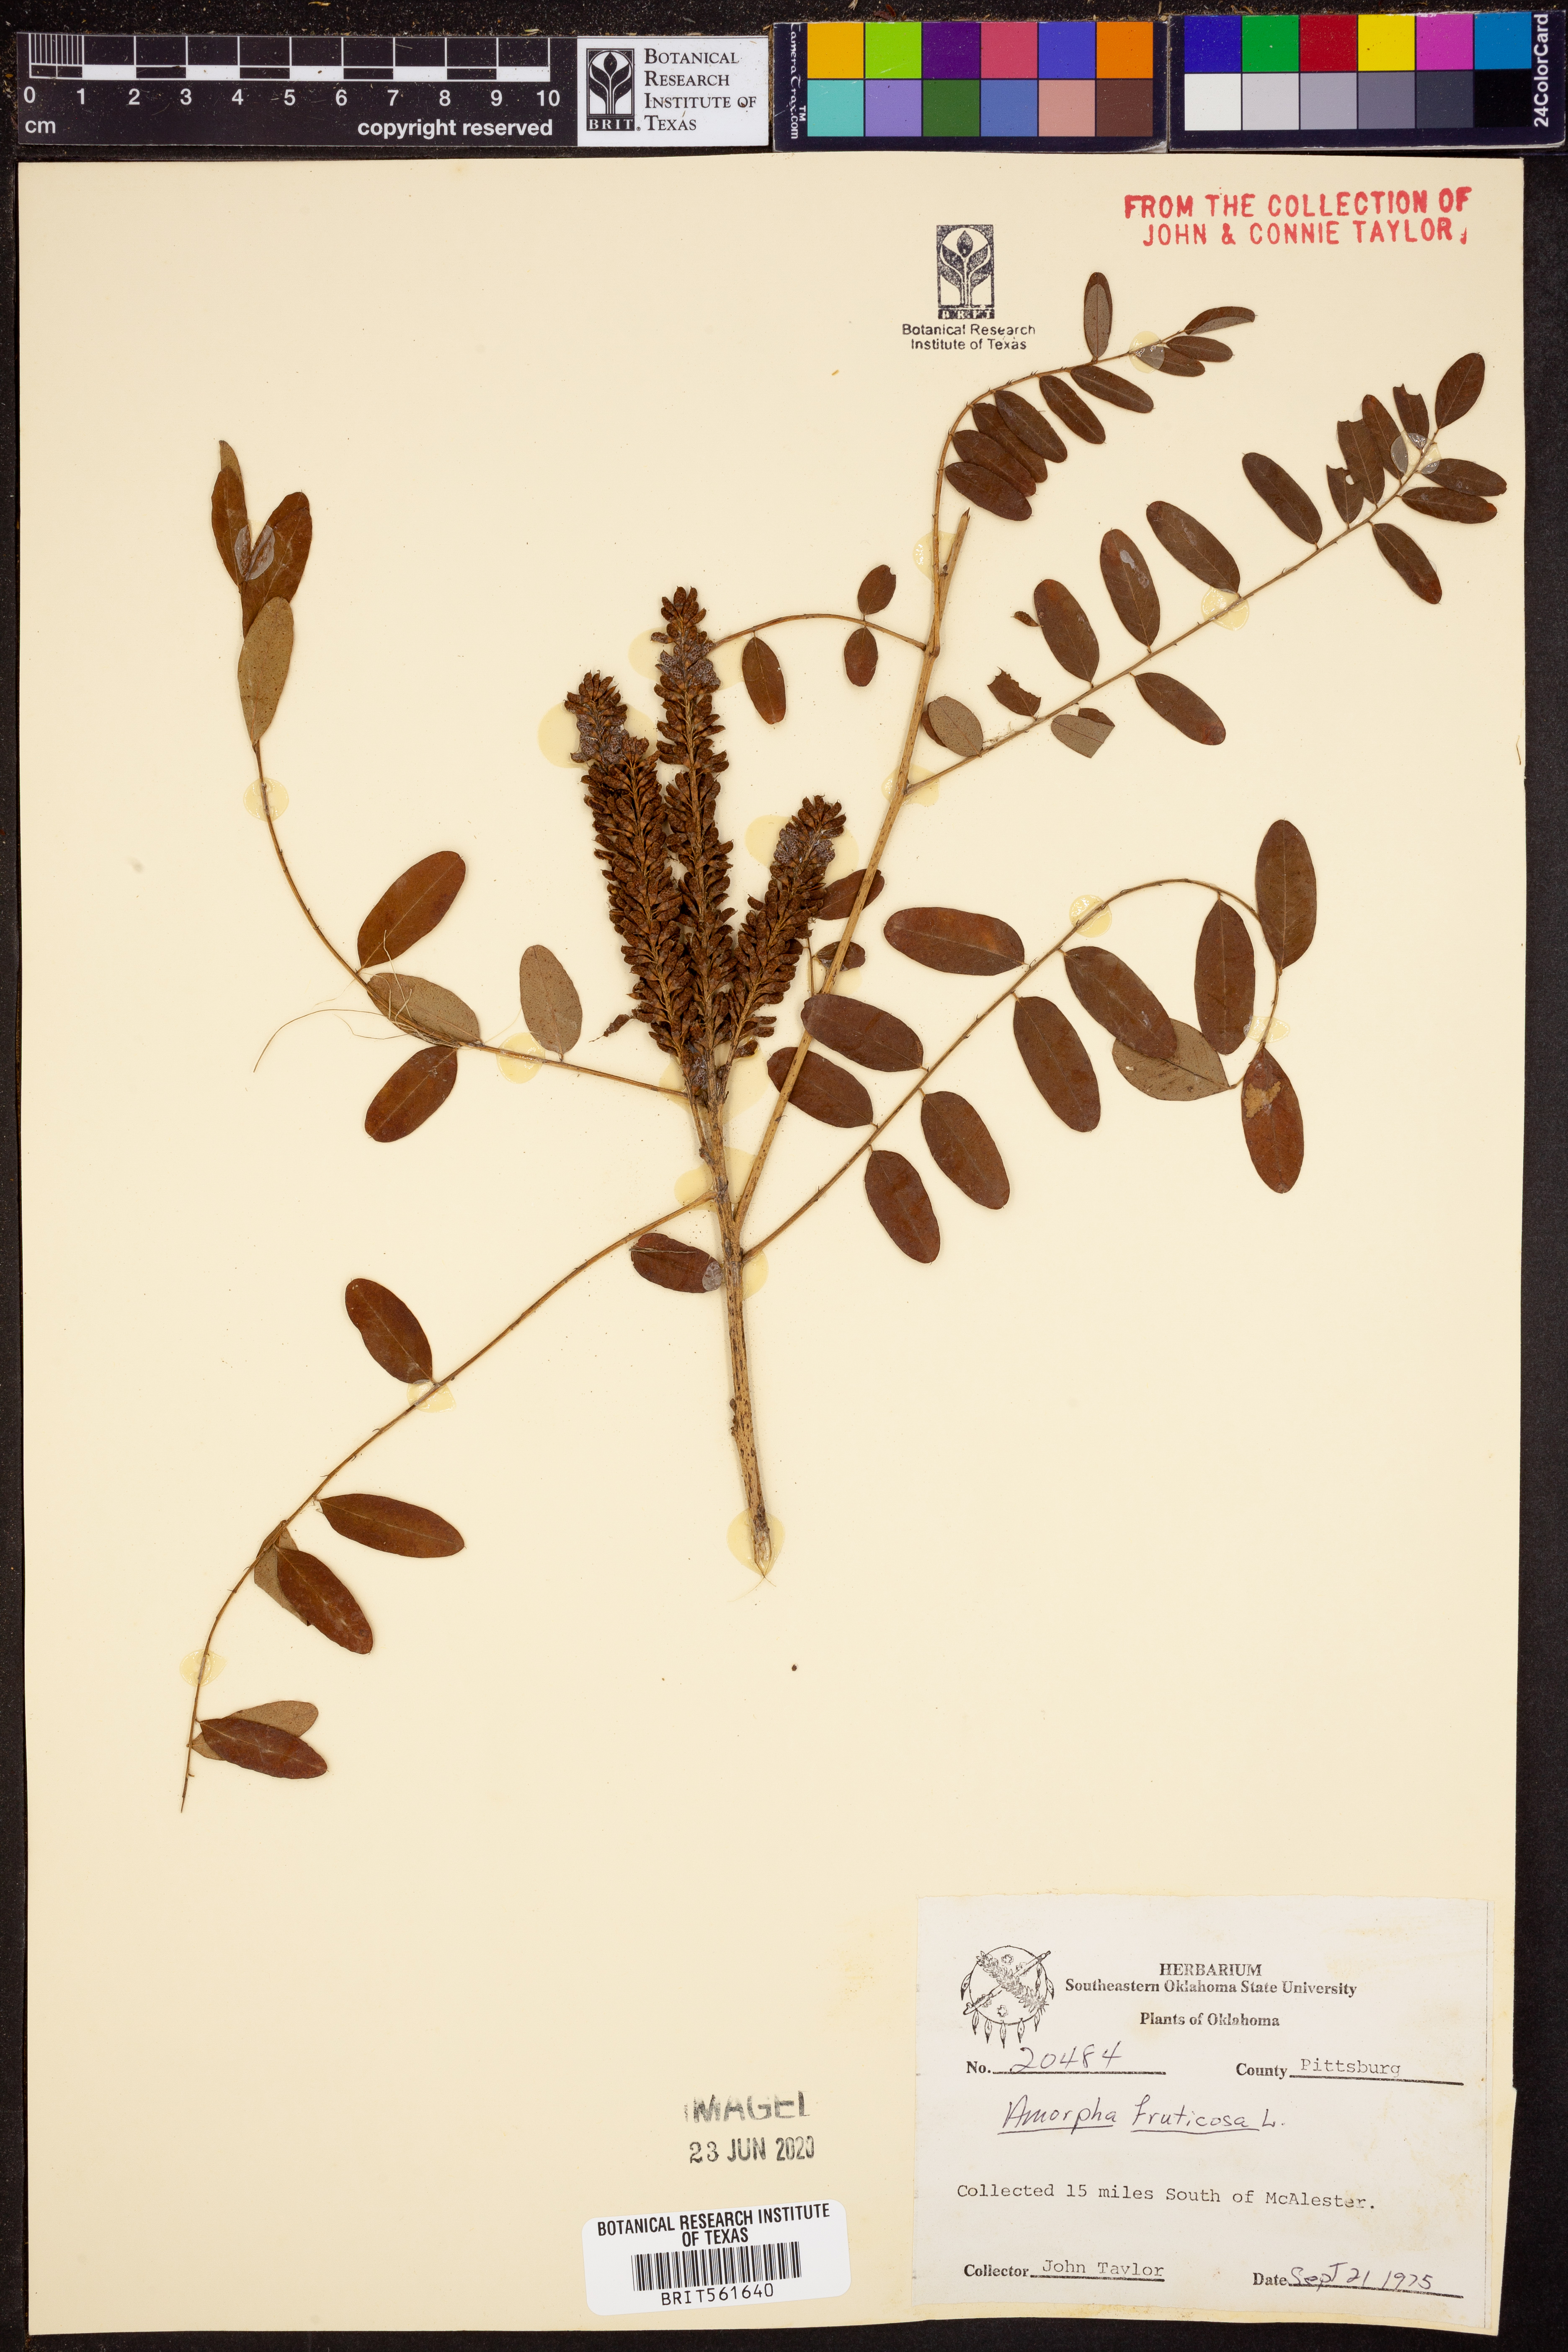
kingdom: Plantae
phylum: Tracheophyta
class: Magnoliopsida
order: Fabales
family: Fabaceae
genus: Amorpha
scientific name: Amorpha fruticosa
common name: False indigo
